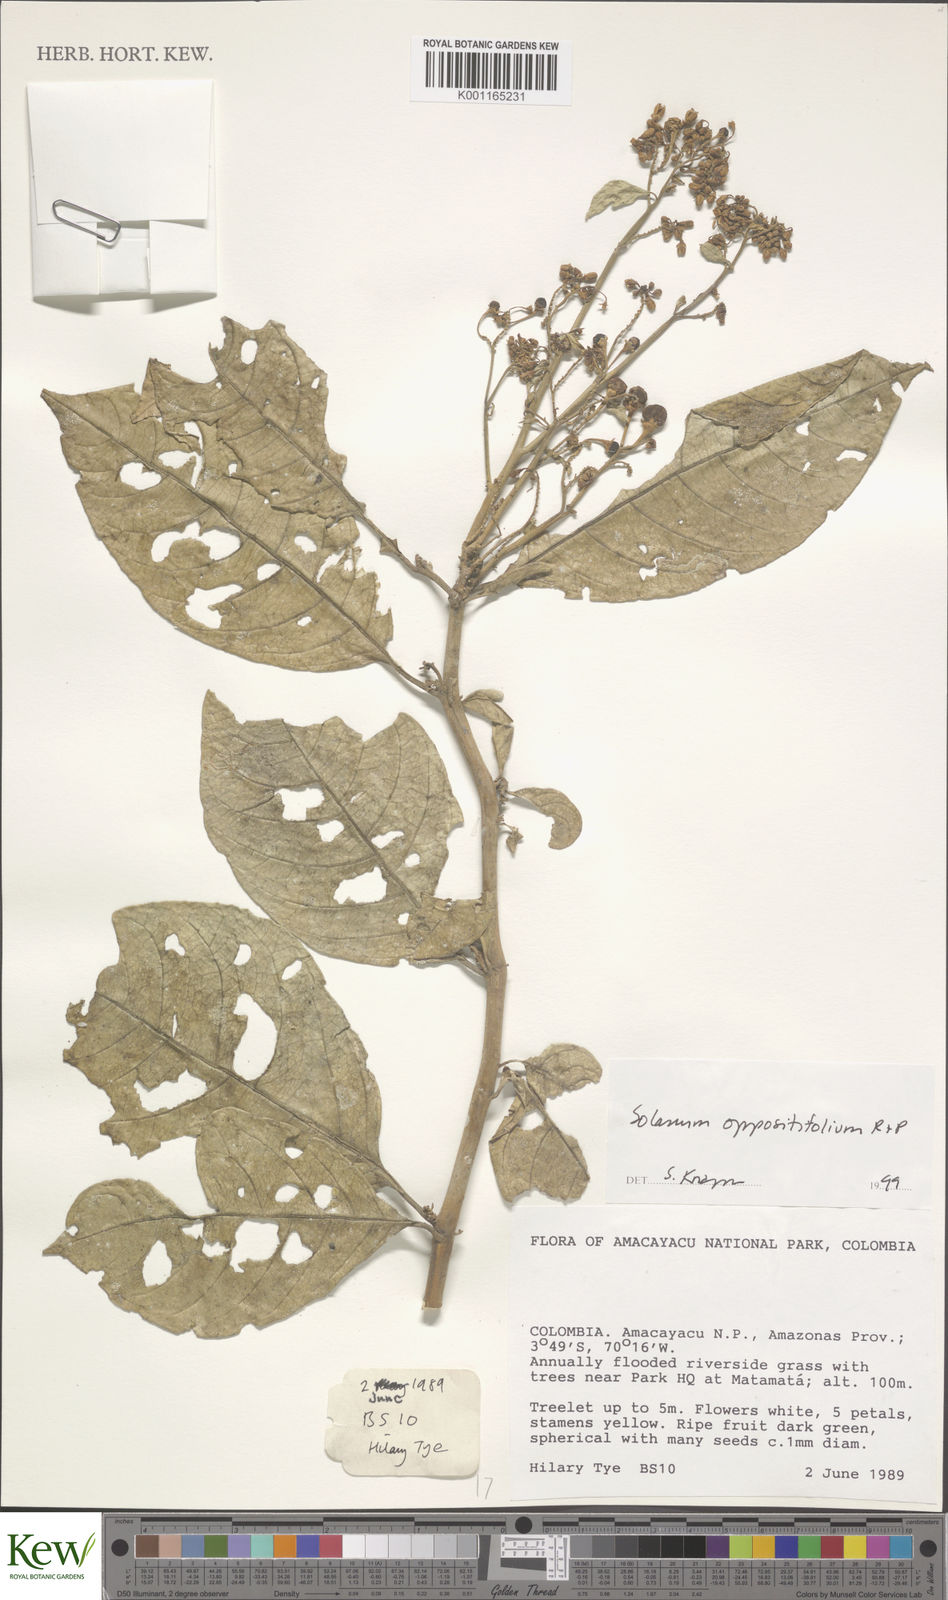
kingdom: Plantae
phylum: Tracheophyta
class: Magnoliopsida
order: Solanales
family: Solanaceae
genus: Solanum
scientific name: Solanum oppositifolium
